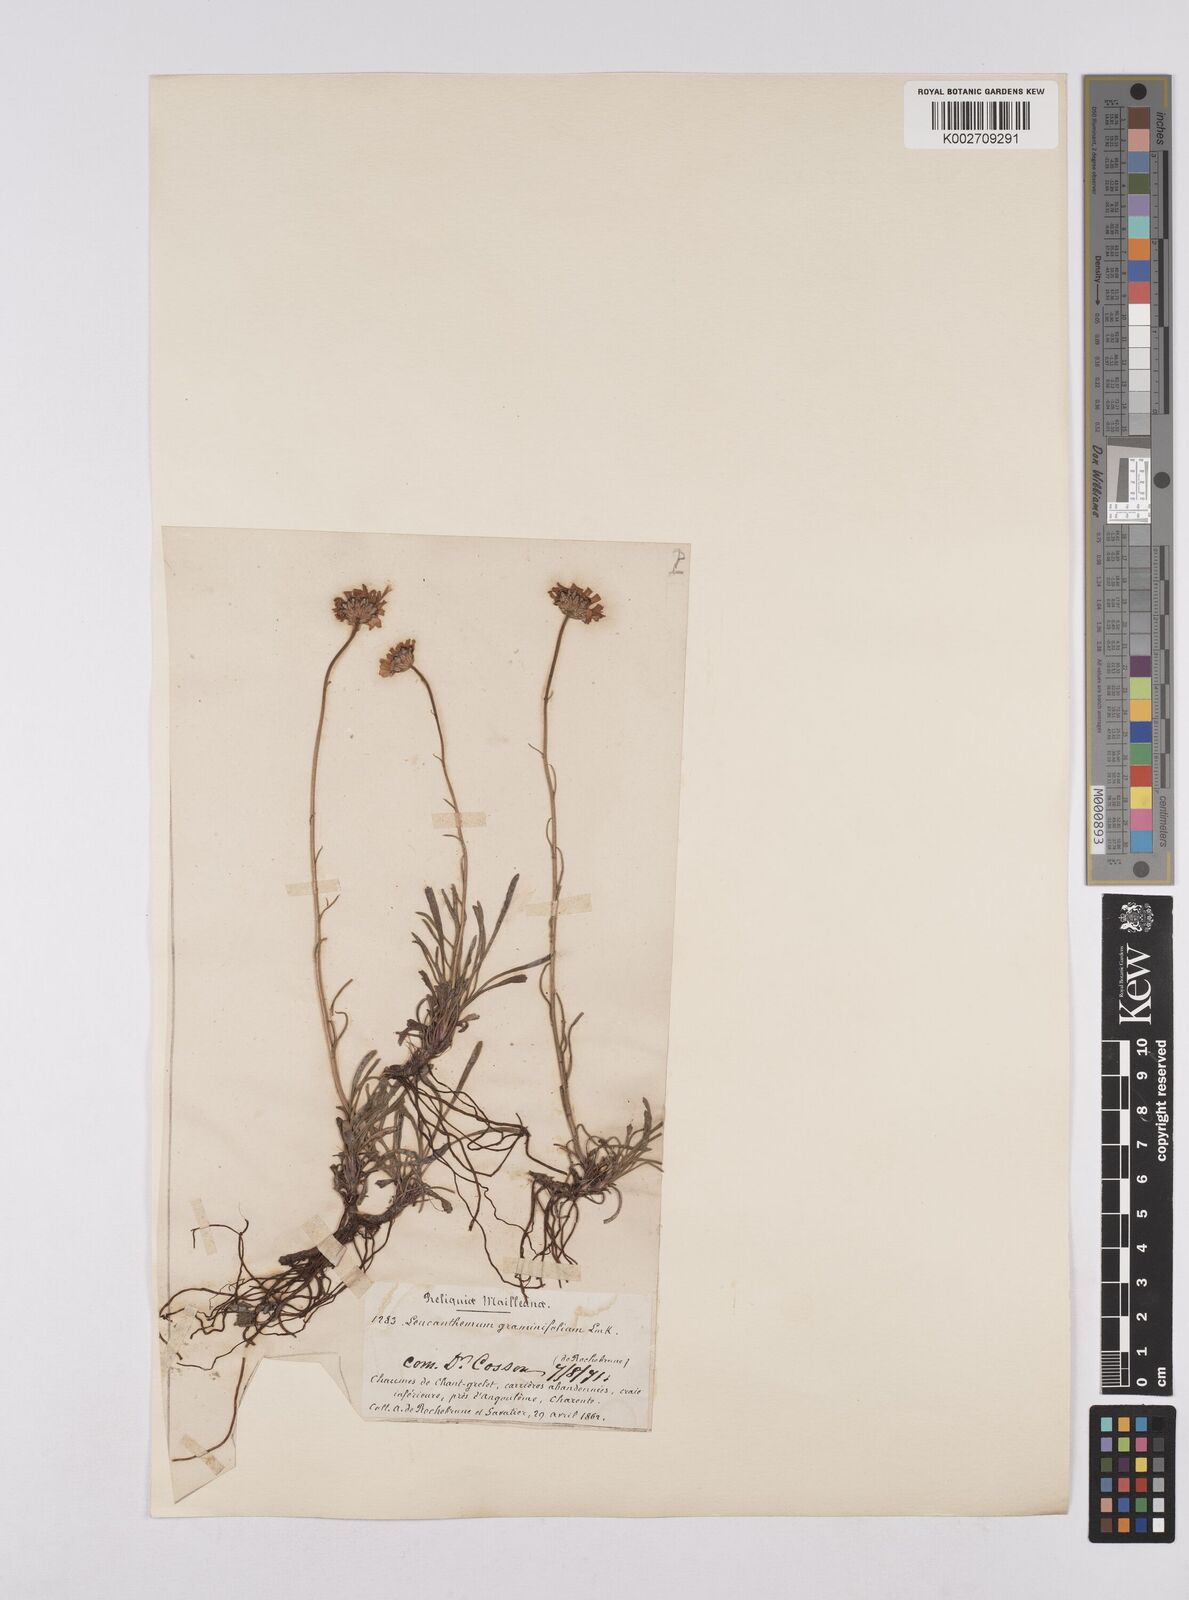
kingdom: Plantae
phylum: Tracheophyta
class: Magnoliopsida
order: Asterales
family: Asteraceae
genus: Leucanthemum
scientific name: Leucanthemum chloroticum
